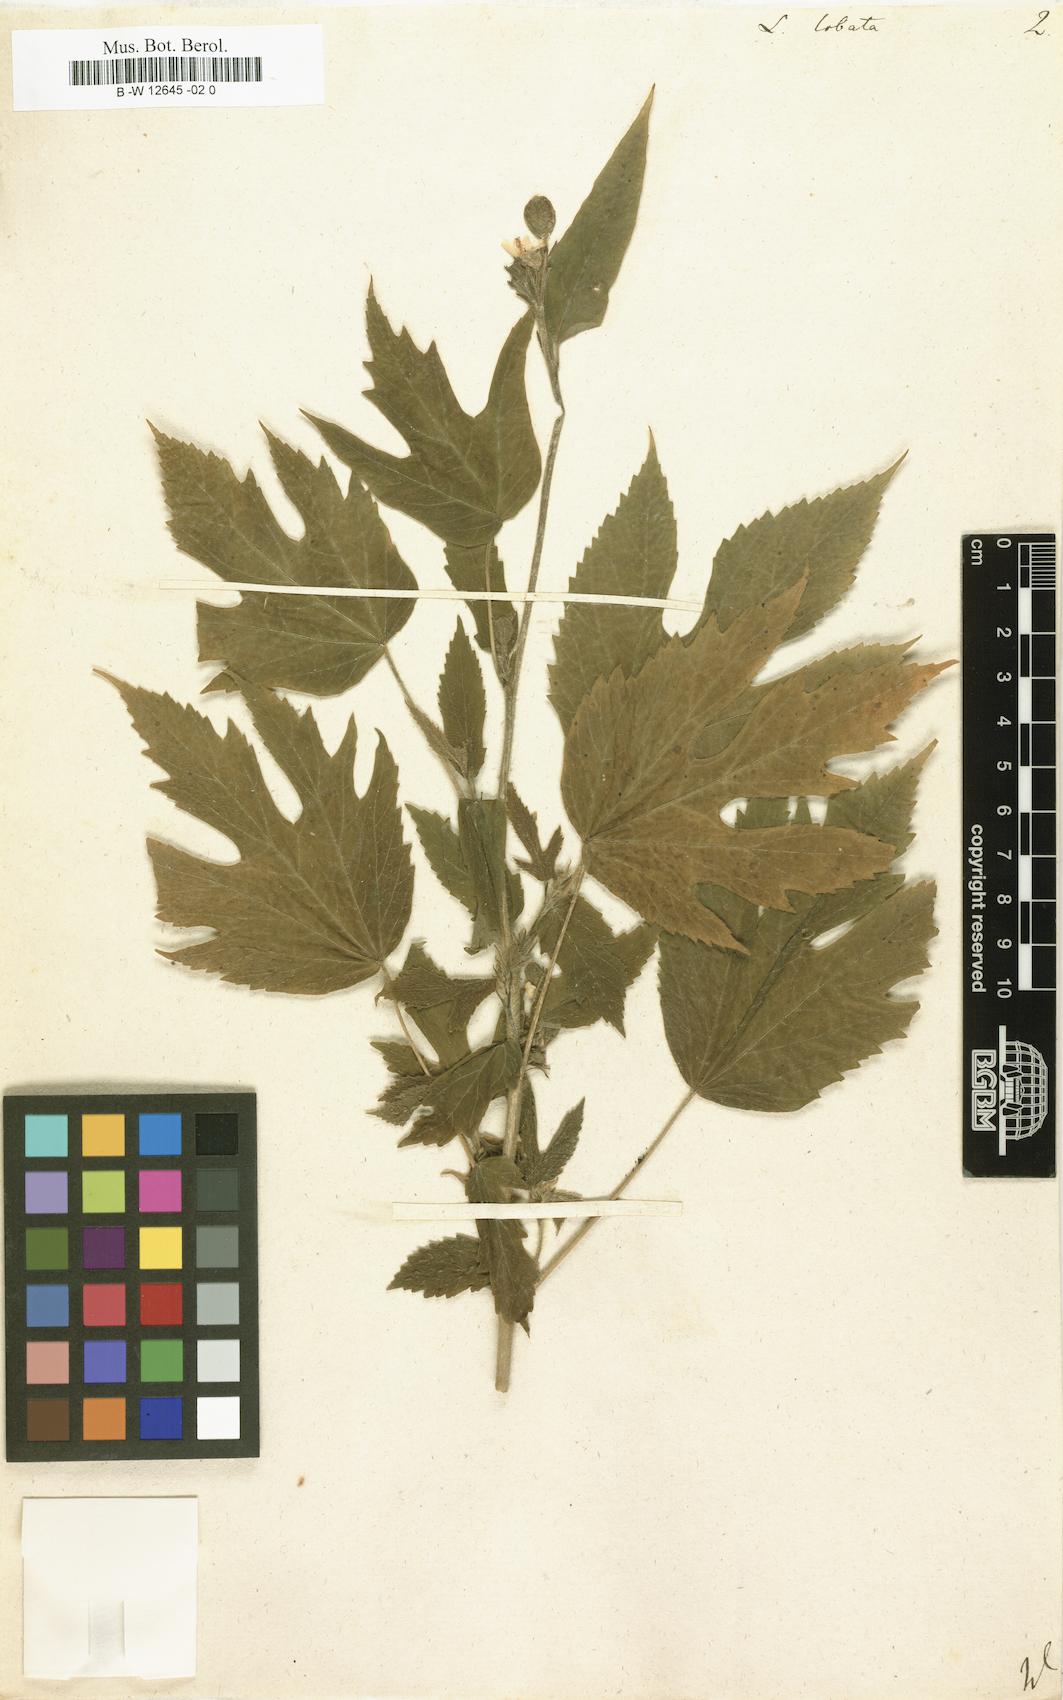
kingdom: Plantae
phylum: Tracheophyta
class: Magnoliopsida
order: Malvales
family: Malvaceae
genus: Hibiscus
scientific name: Hibiscus lobatus
